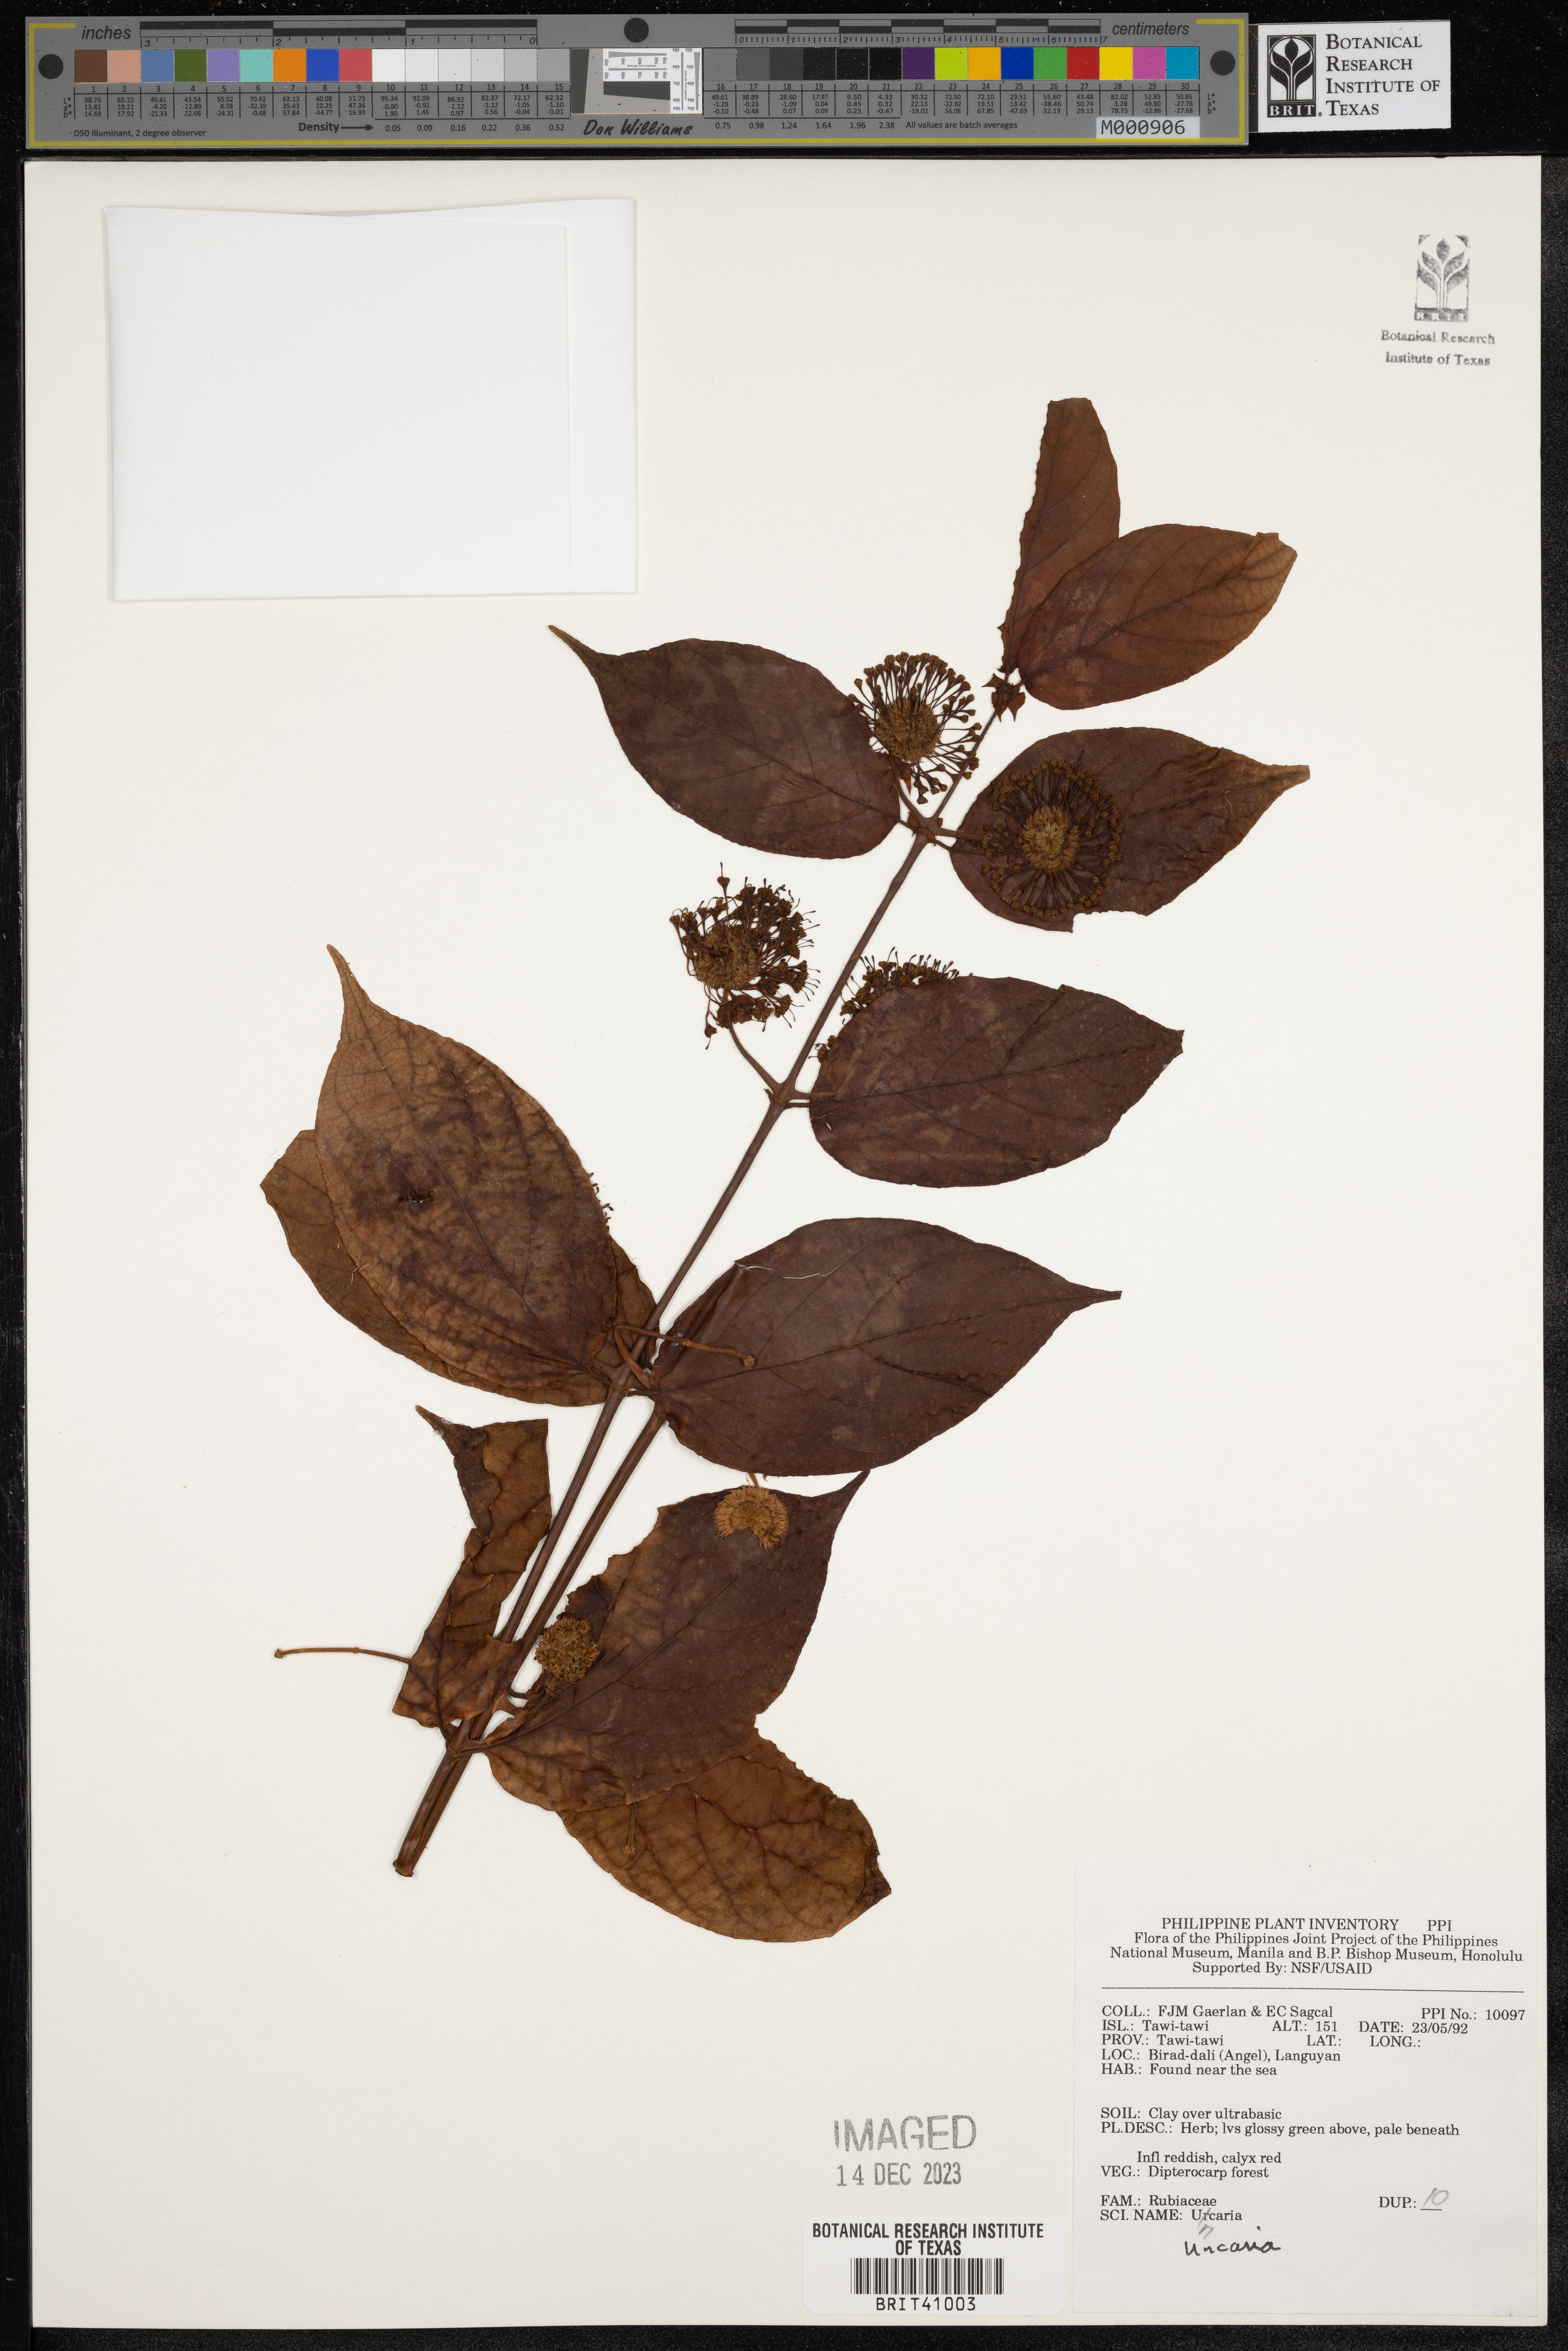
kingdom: Plantae
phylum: Tracheophyta
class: Magnoliopsida
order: Gentianales
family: Rubiaceae
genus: Uncaria
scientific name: Uncaria
